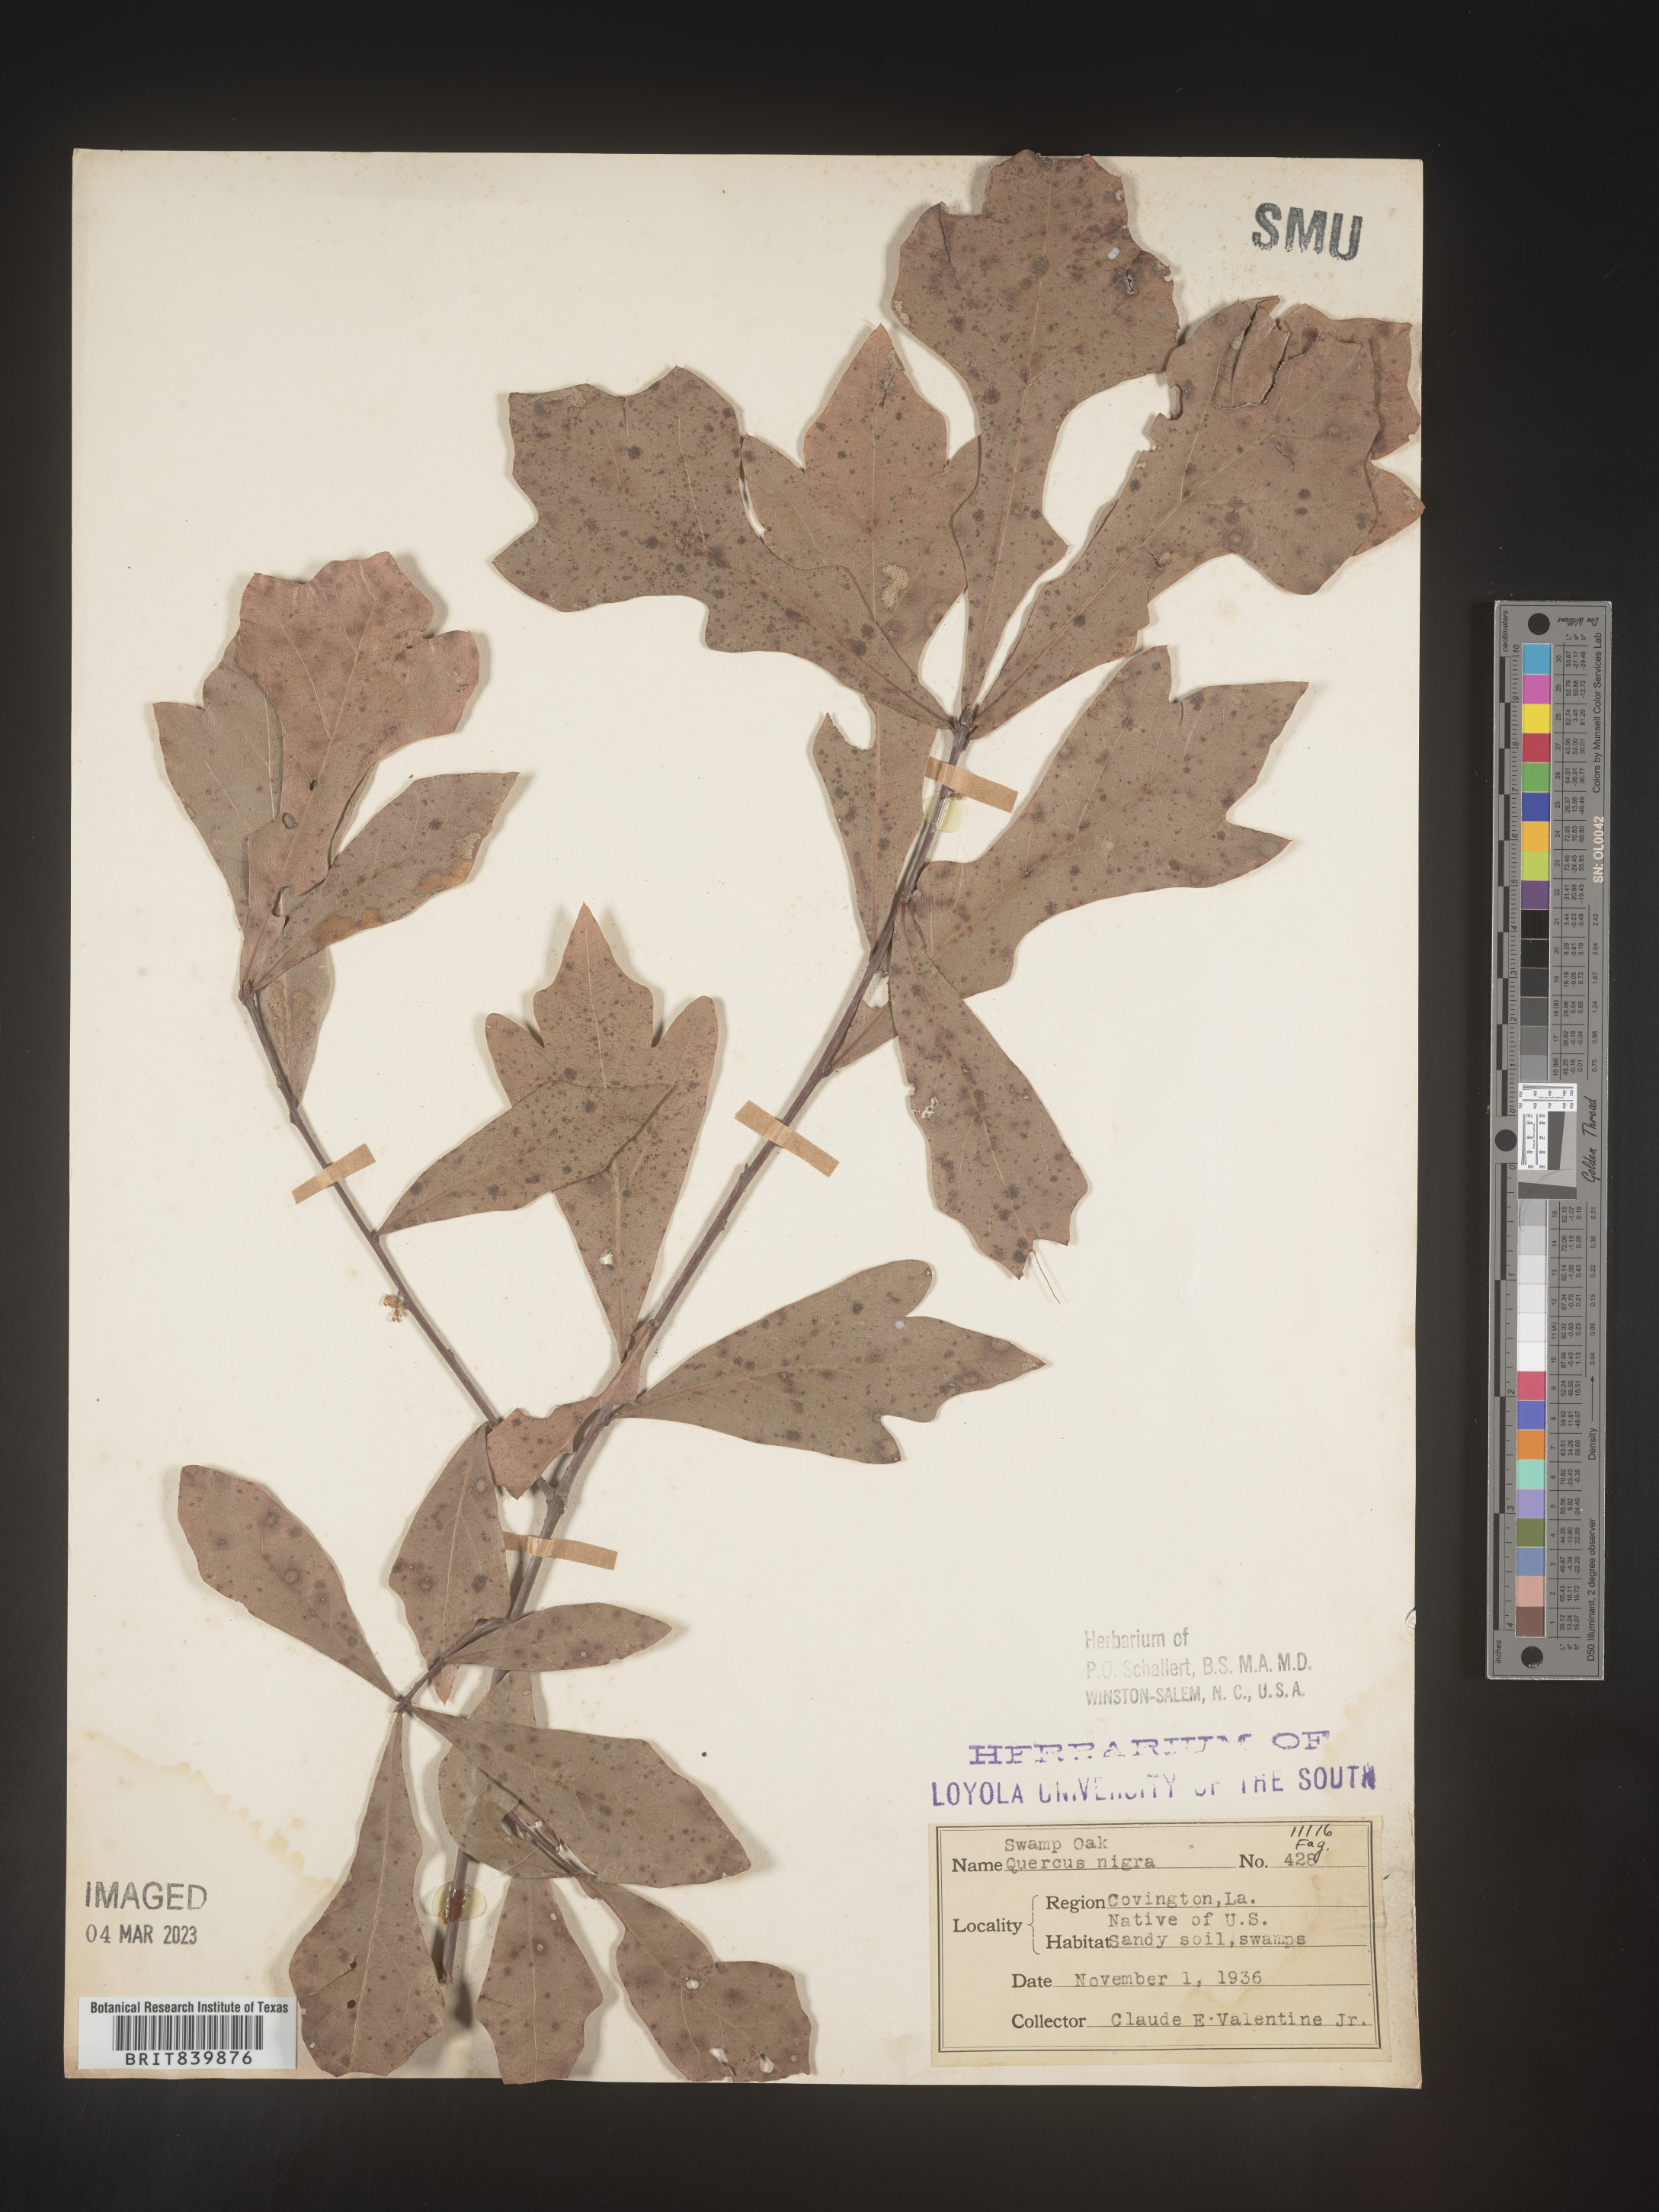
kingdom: Plantae
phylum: Tracheophyta
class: Magnoliopsida
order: Fagales
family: Fagaceae
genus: Quercus
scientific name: Quercus nigra
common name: Water oak
